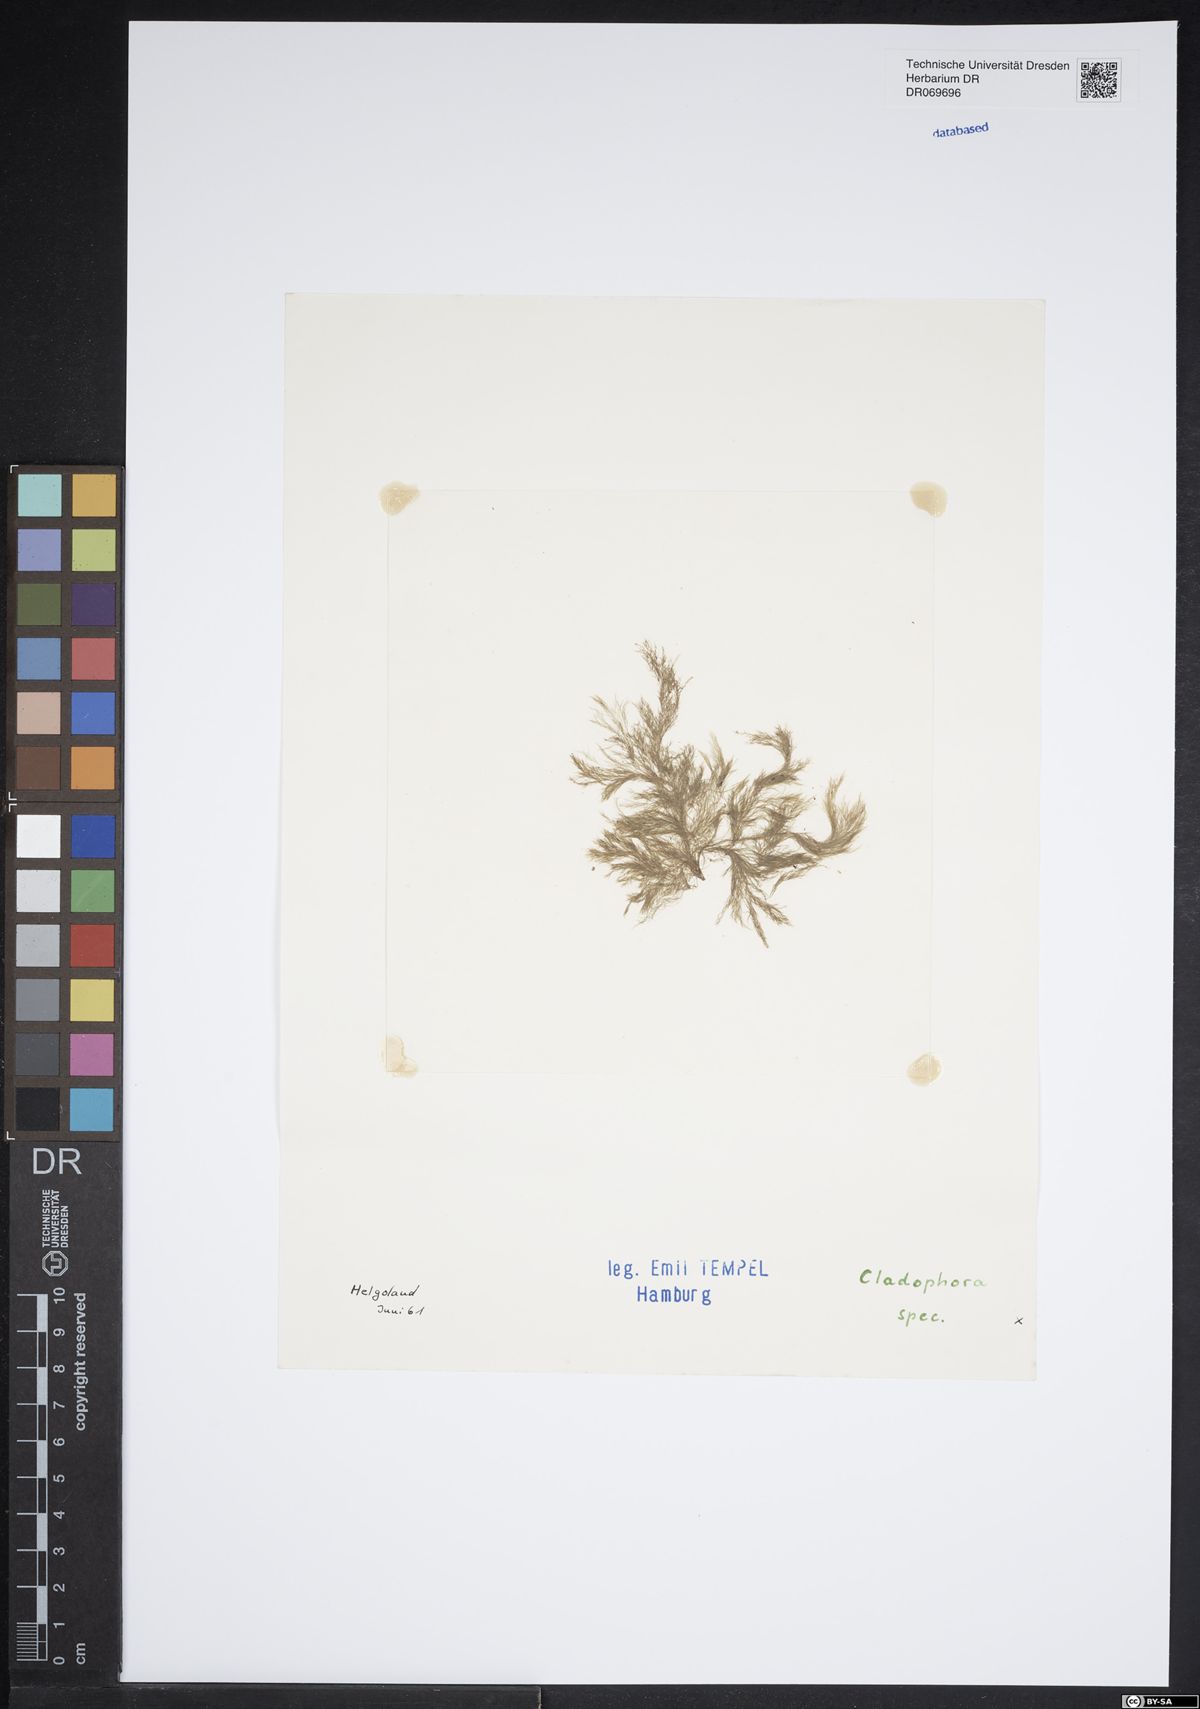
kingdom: Plantae
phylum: Chlorophyta
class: Ulvophyceae
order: Cladophorales
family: Cladophoraceae
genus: Cladophora
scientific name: Cladophora
